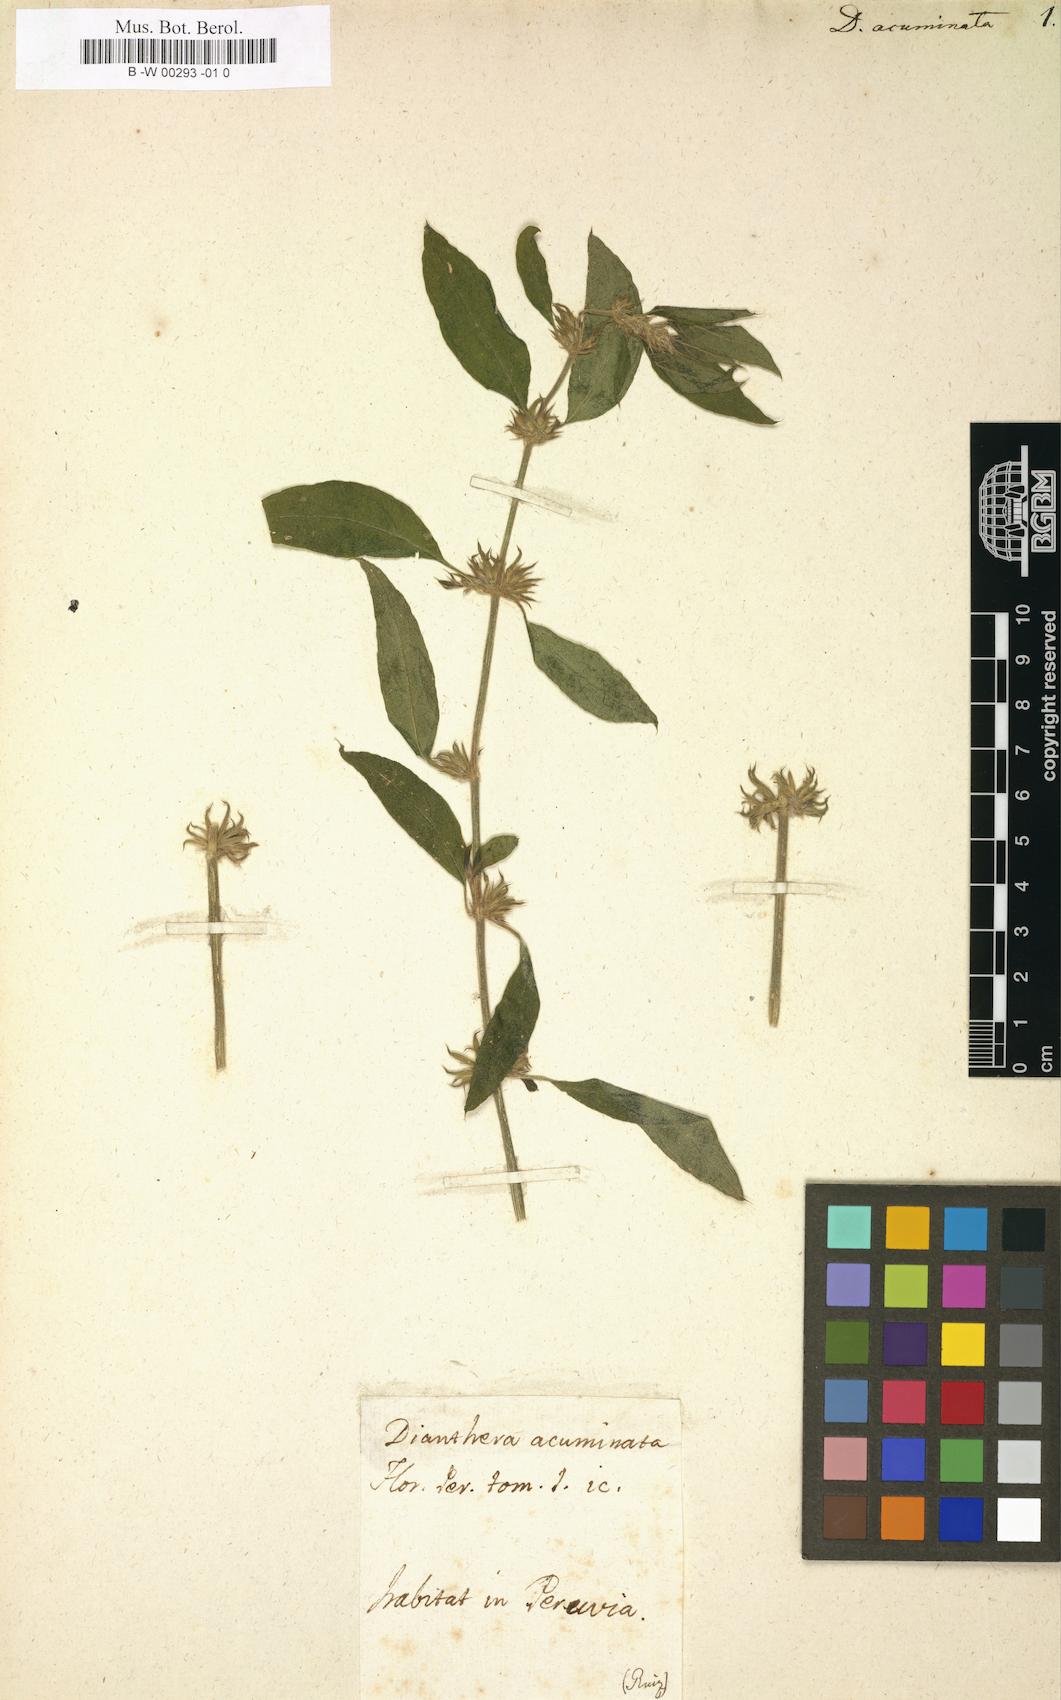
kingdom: Plantae
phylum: Tracheophyta
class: Magnoliopsida
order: Lamiales
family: Acanthaceae
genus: Dicliptera
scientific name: Dicliptera acuminata
